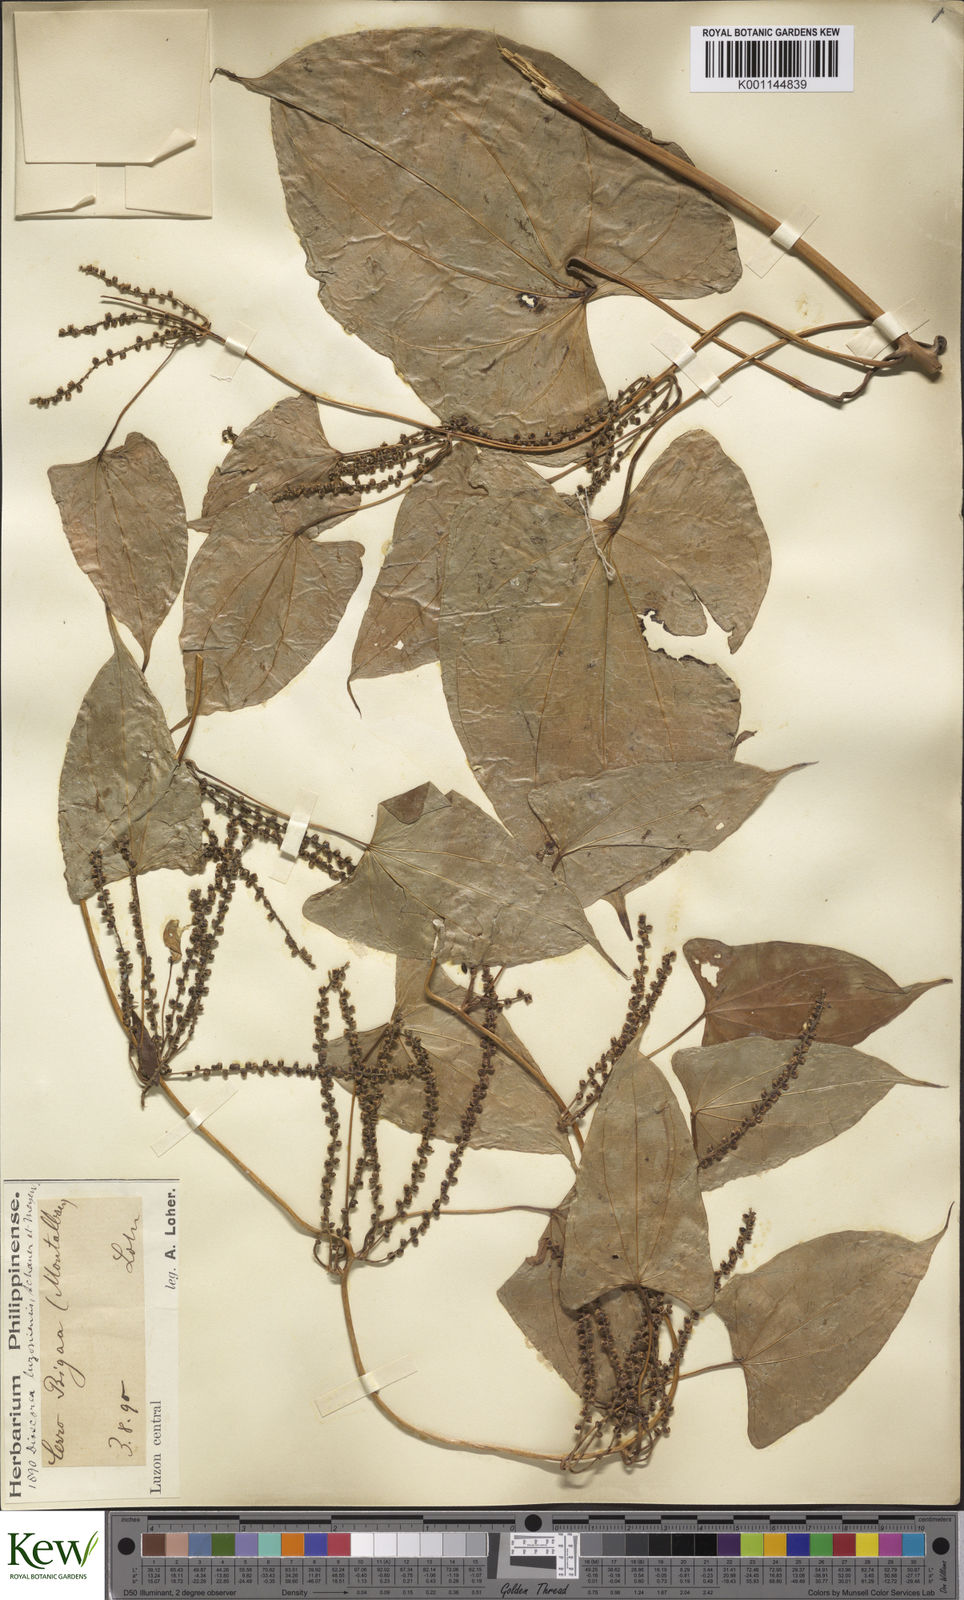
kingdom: Plantae
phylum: Tracheophyta
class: Liliopsida
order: Dioscoreales
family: Dioscoreaceae
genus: Dioscorea
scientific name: Dioscorea luzonensis
